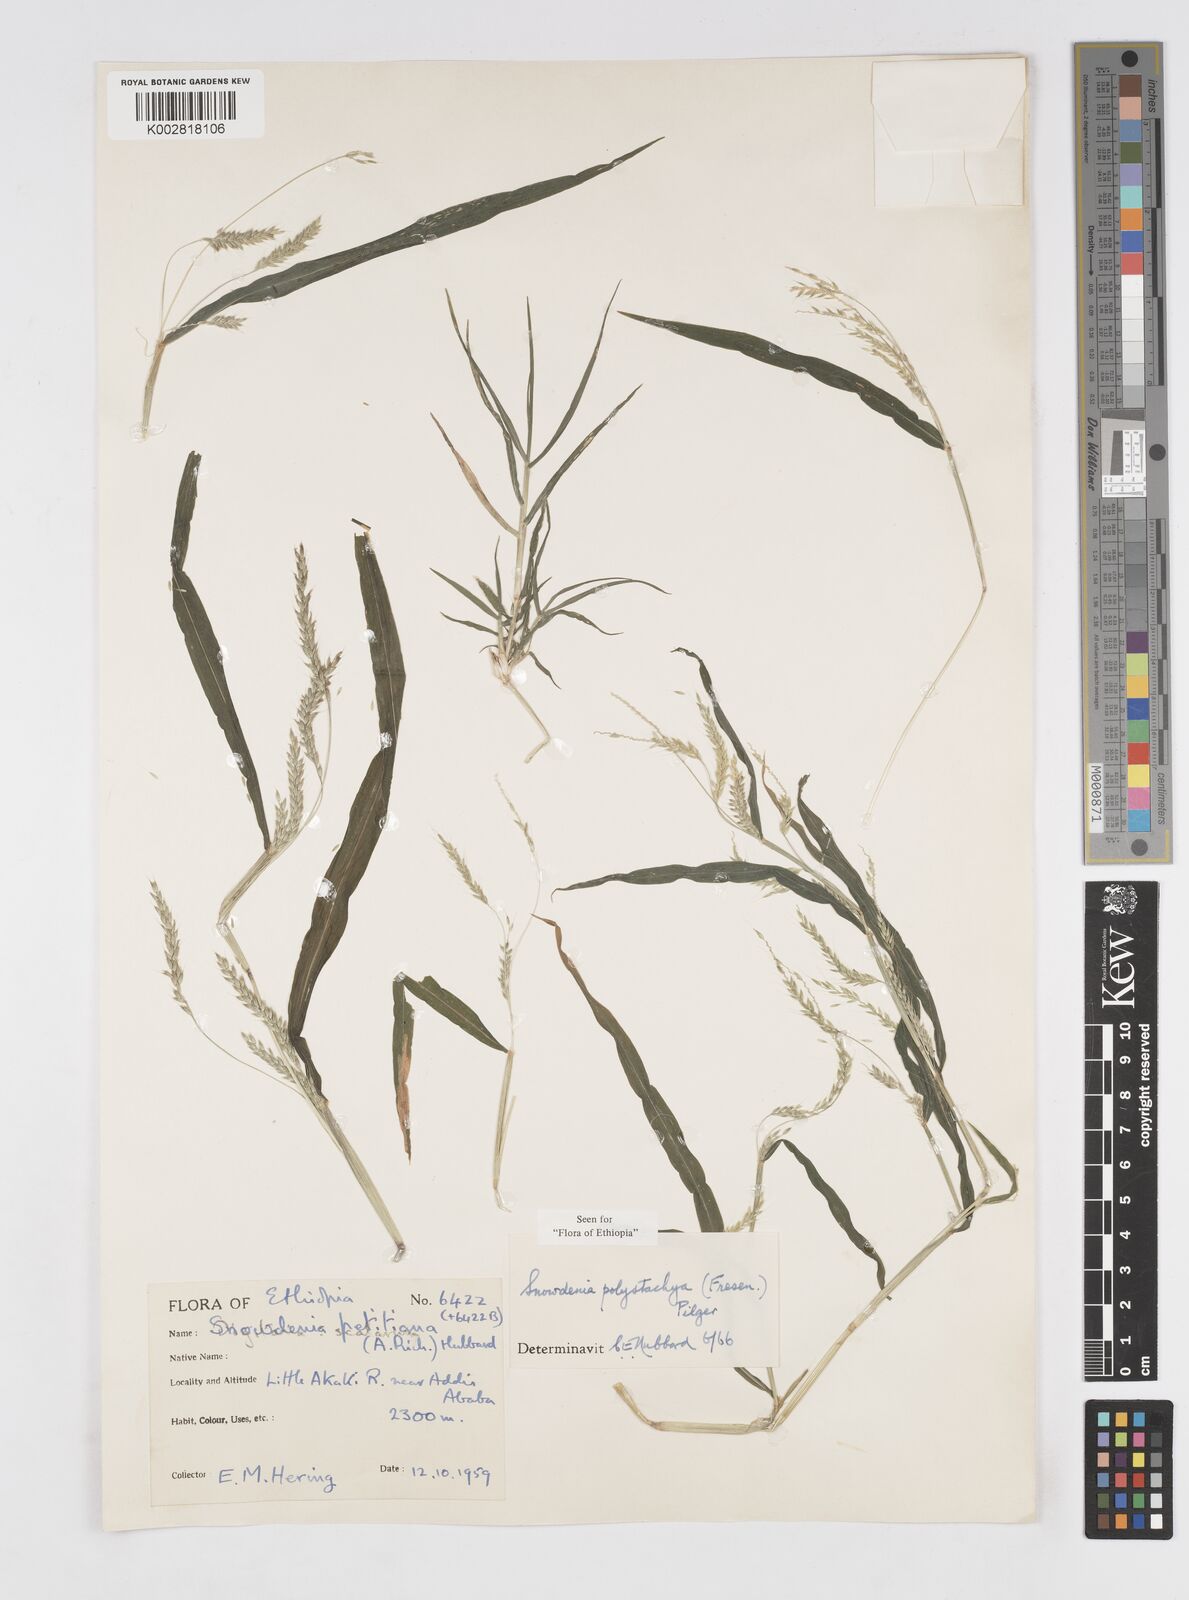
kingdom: Plantae
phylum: Tracheophyta
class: Liliopsida
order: Poales
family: Poaceae
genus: Snowdenia
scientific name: Snowdenia polystachya
